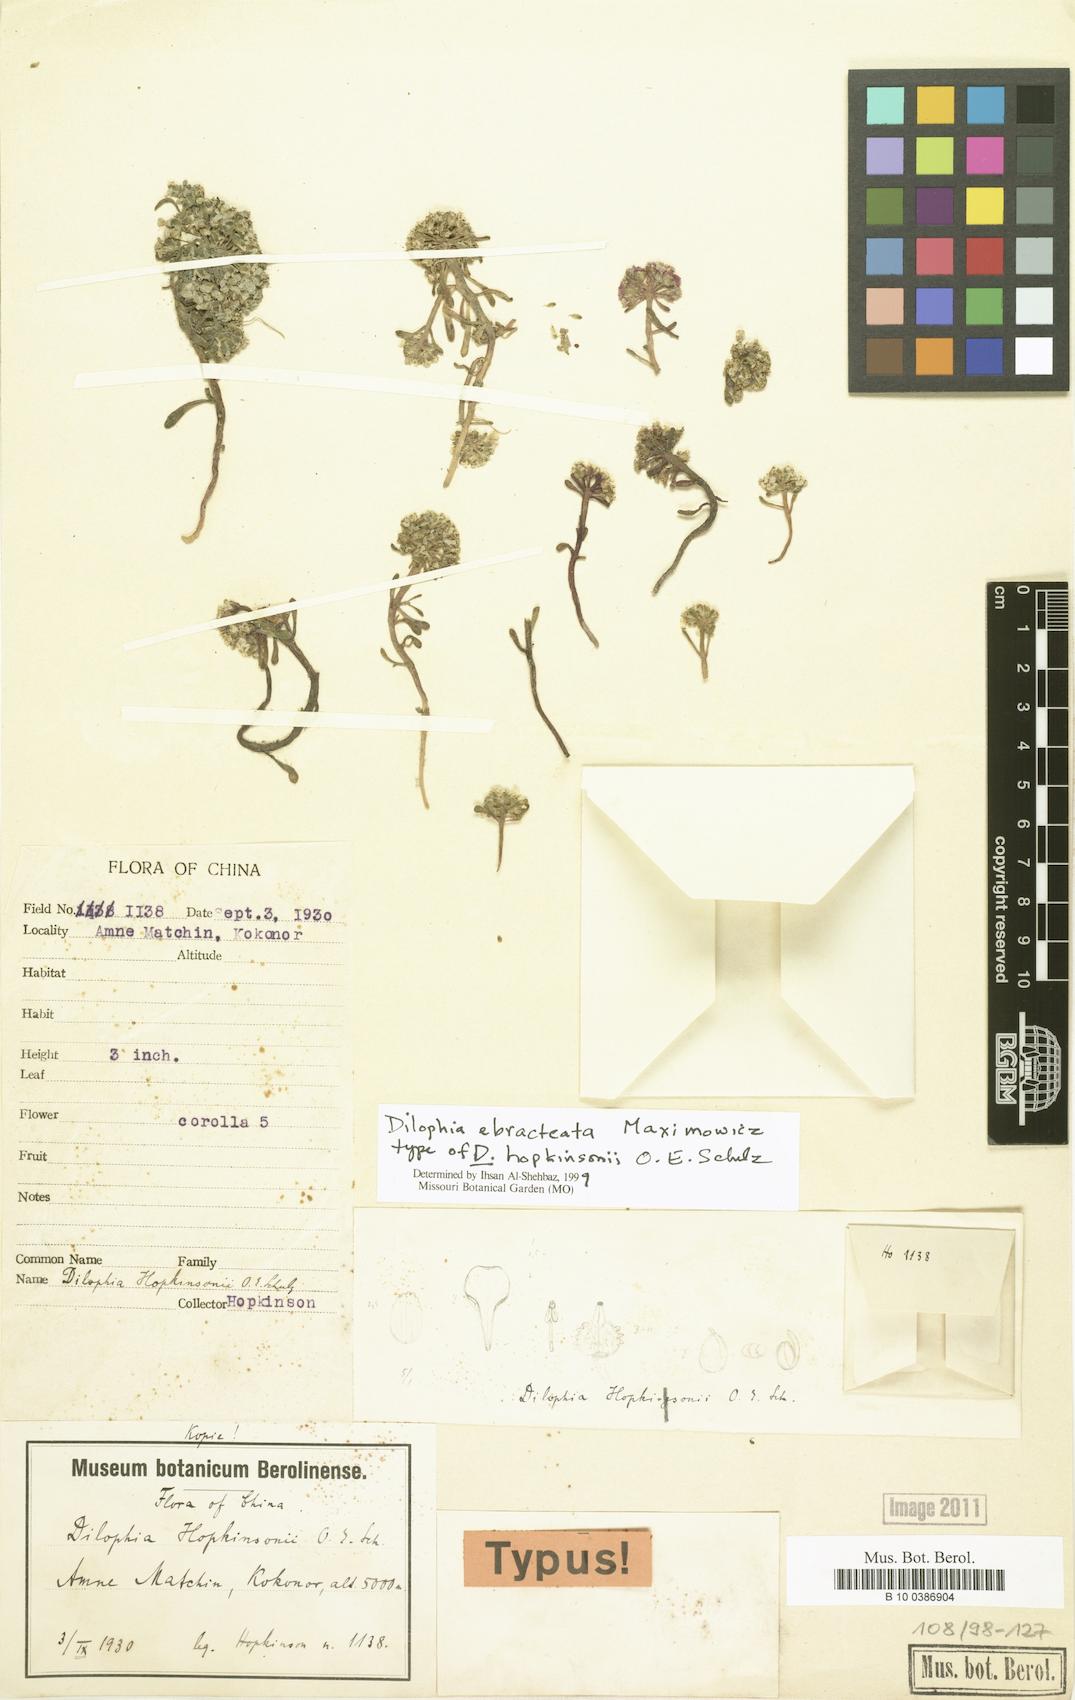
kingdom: Plantae
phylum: Tracheophyta
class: Magnoliopsida
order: Brassicales
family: Brassicaceae
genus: Dilophia
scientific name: Dilophia ebracteata
